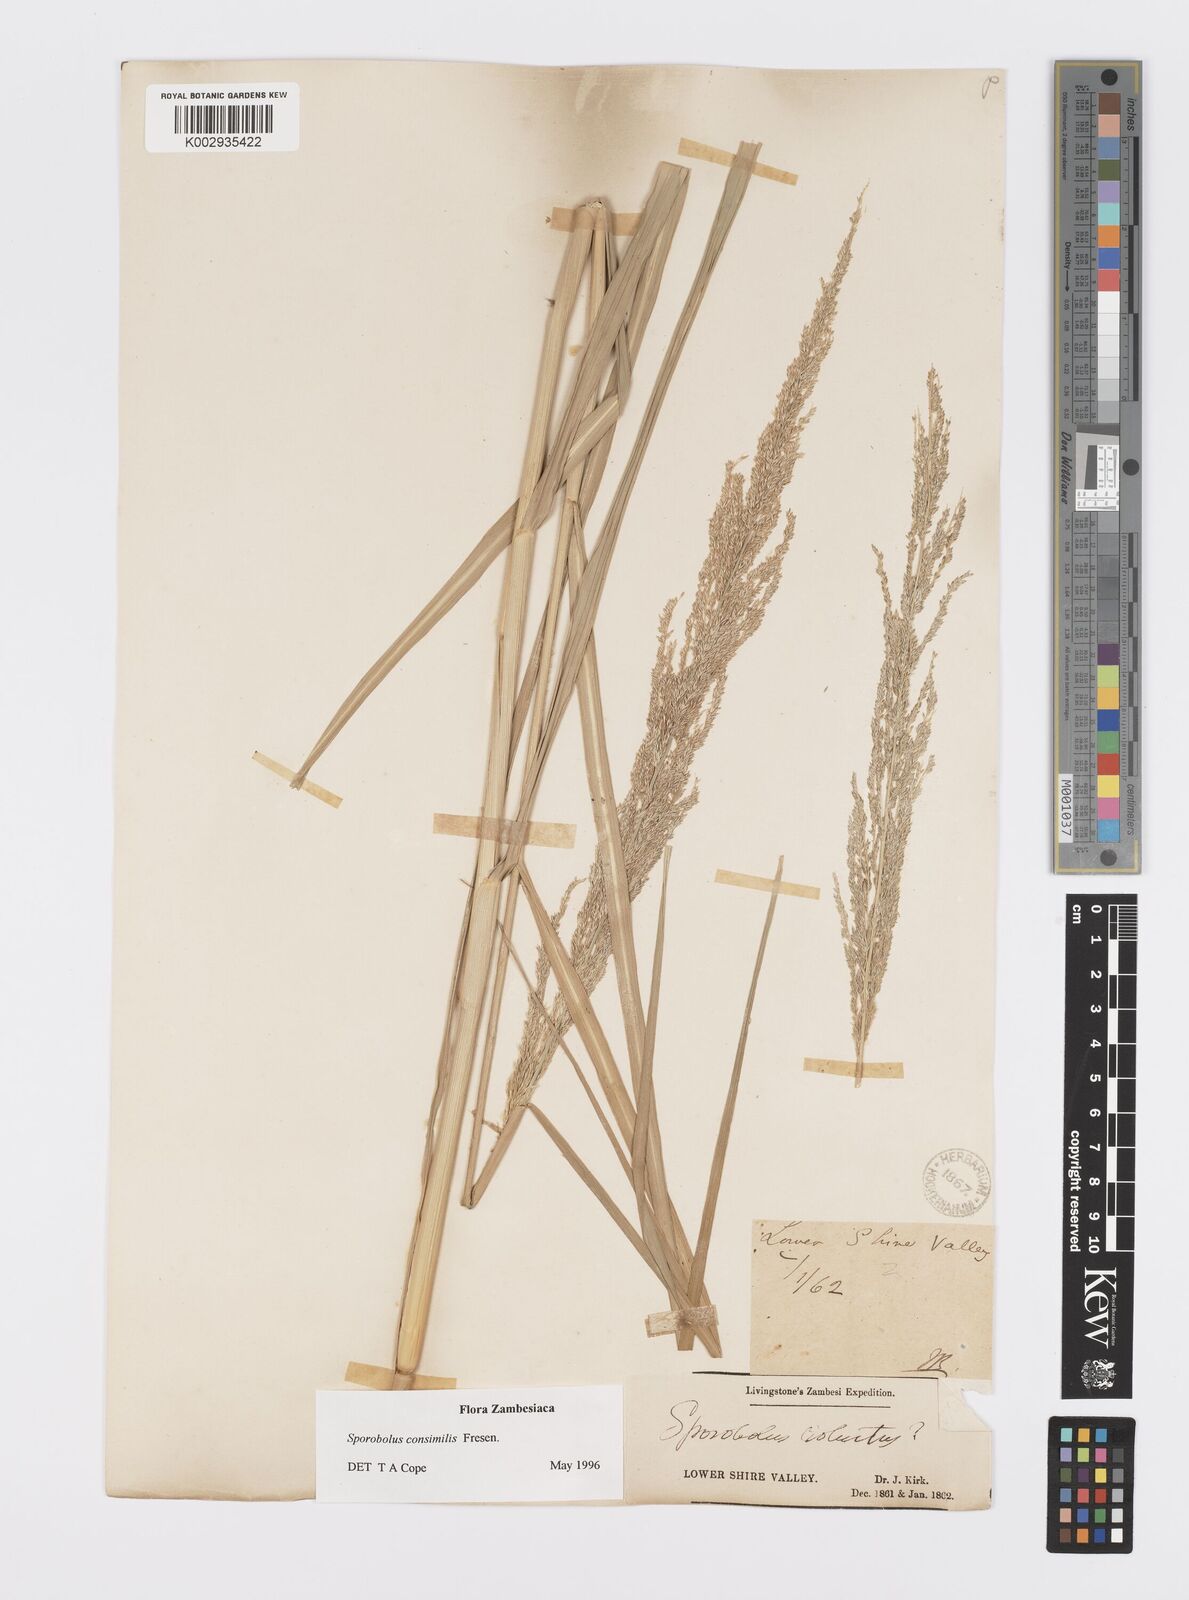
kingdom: Plantae
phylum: Tracheophyta
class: Liliopsida
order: Poales
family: Poaceae
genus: Sporobolus
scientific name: Sporobolus consimilis
